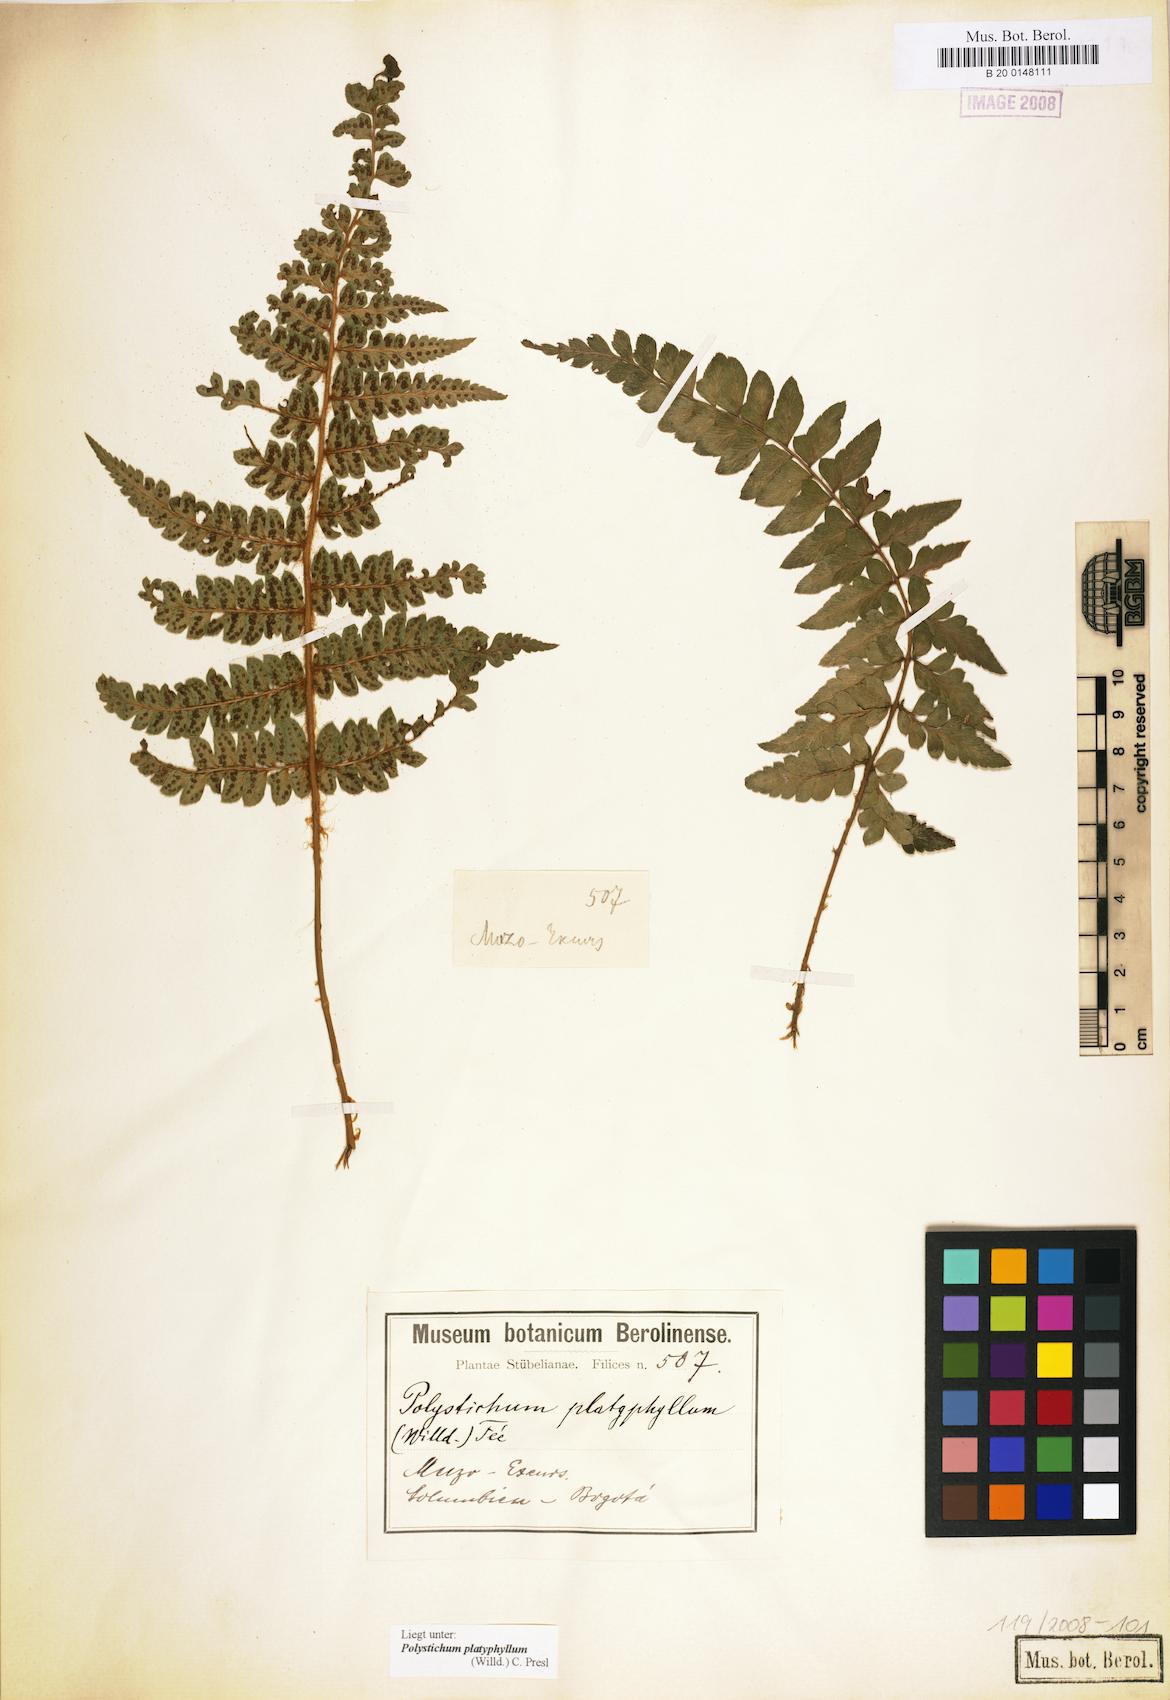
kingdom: Plantae
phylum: Tracheophyta
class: Polypodiopsida
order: Polypodiales
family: Dryopteridaceae
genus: Polystichum
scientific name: Polystichum platyphyllum
